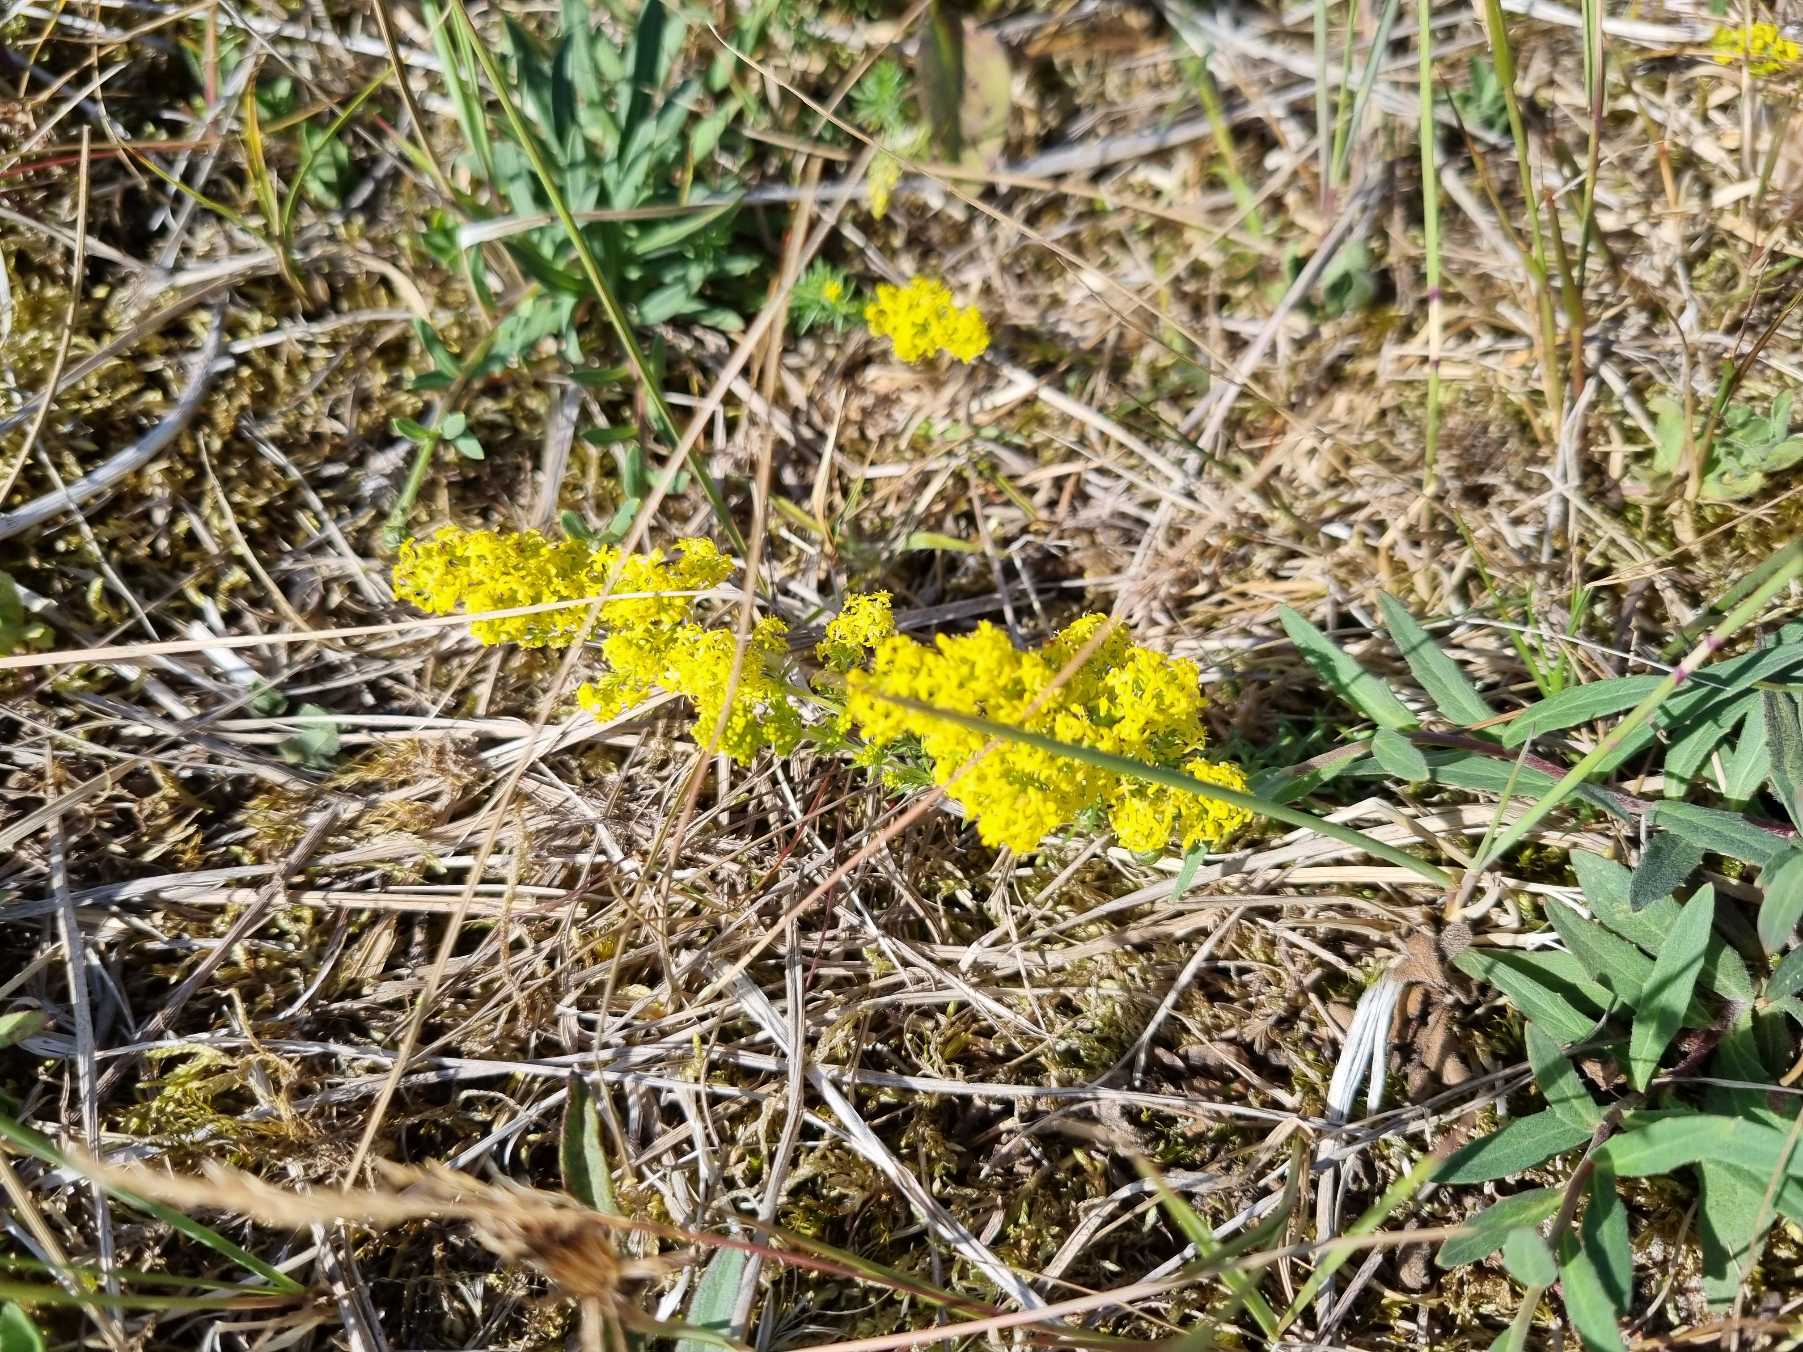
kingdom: Plantae
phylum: Tracheophyta
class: Magnoliopsida
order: Gentianales
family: Rubiaceae
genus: Galium
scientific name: Galium verum
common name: Gul snerre
